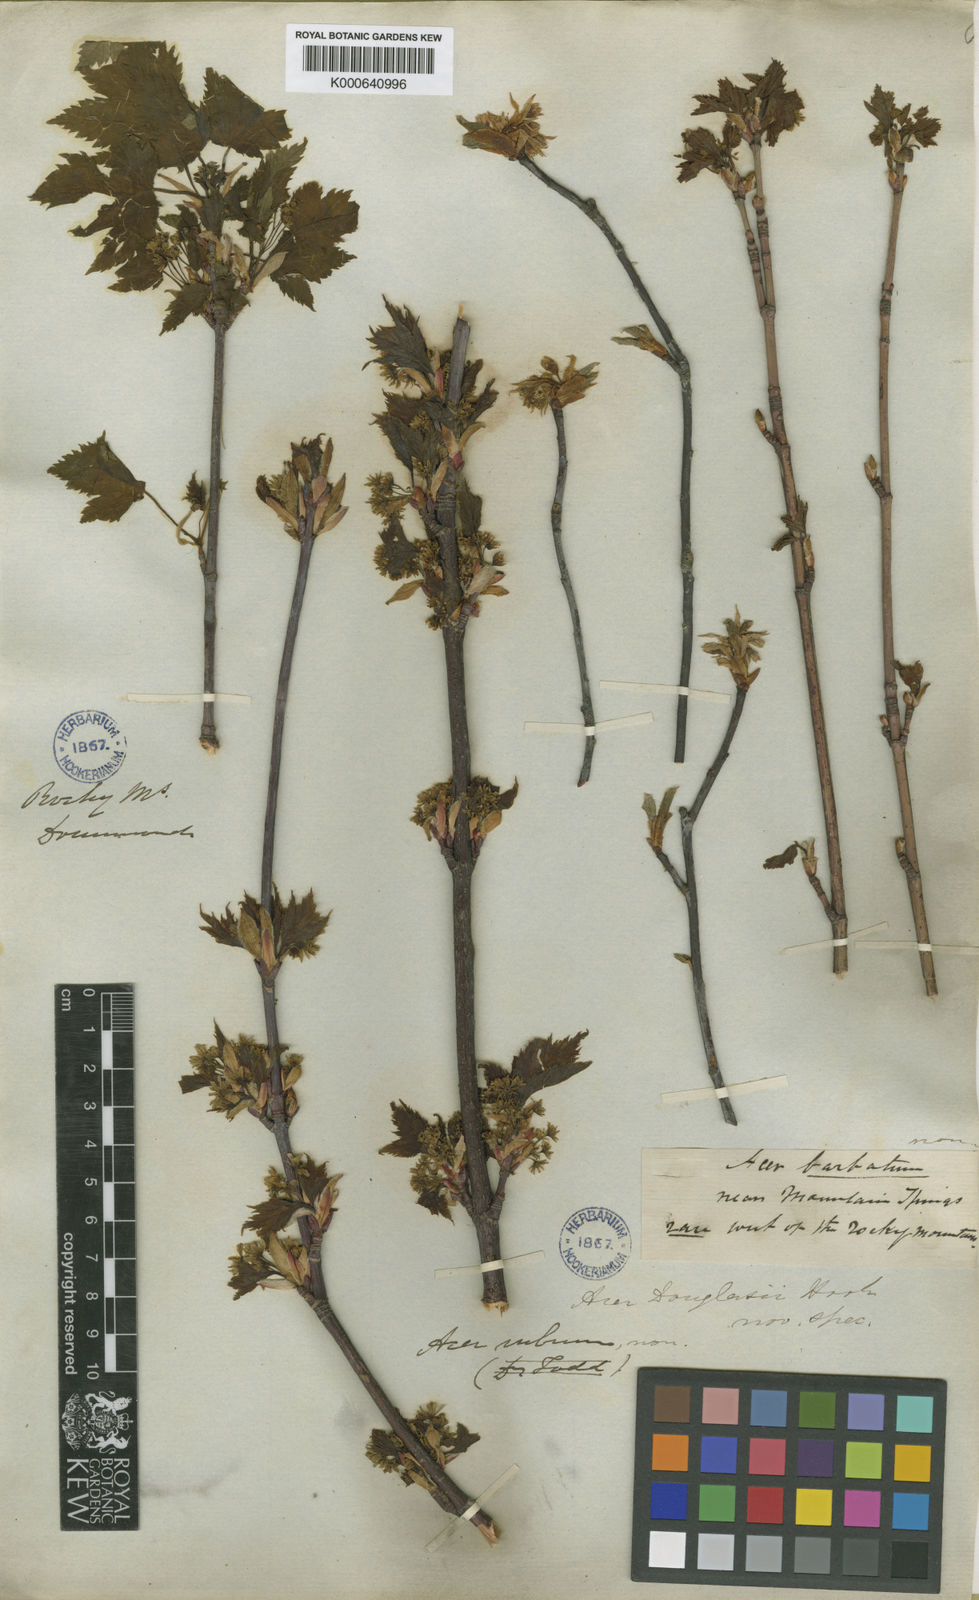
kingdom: Plantae
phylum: Tracheophyta
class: Magnoliopsida
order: Sapindales
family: Sapindaceae
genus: Acer
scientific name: Acer glabrum
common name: Rocky mountain maple
